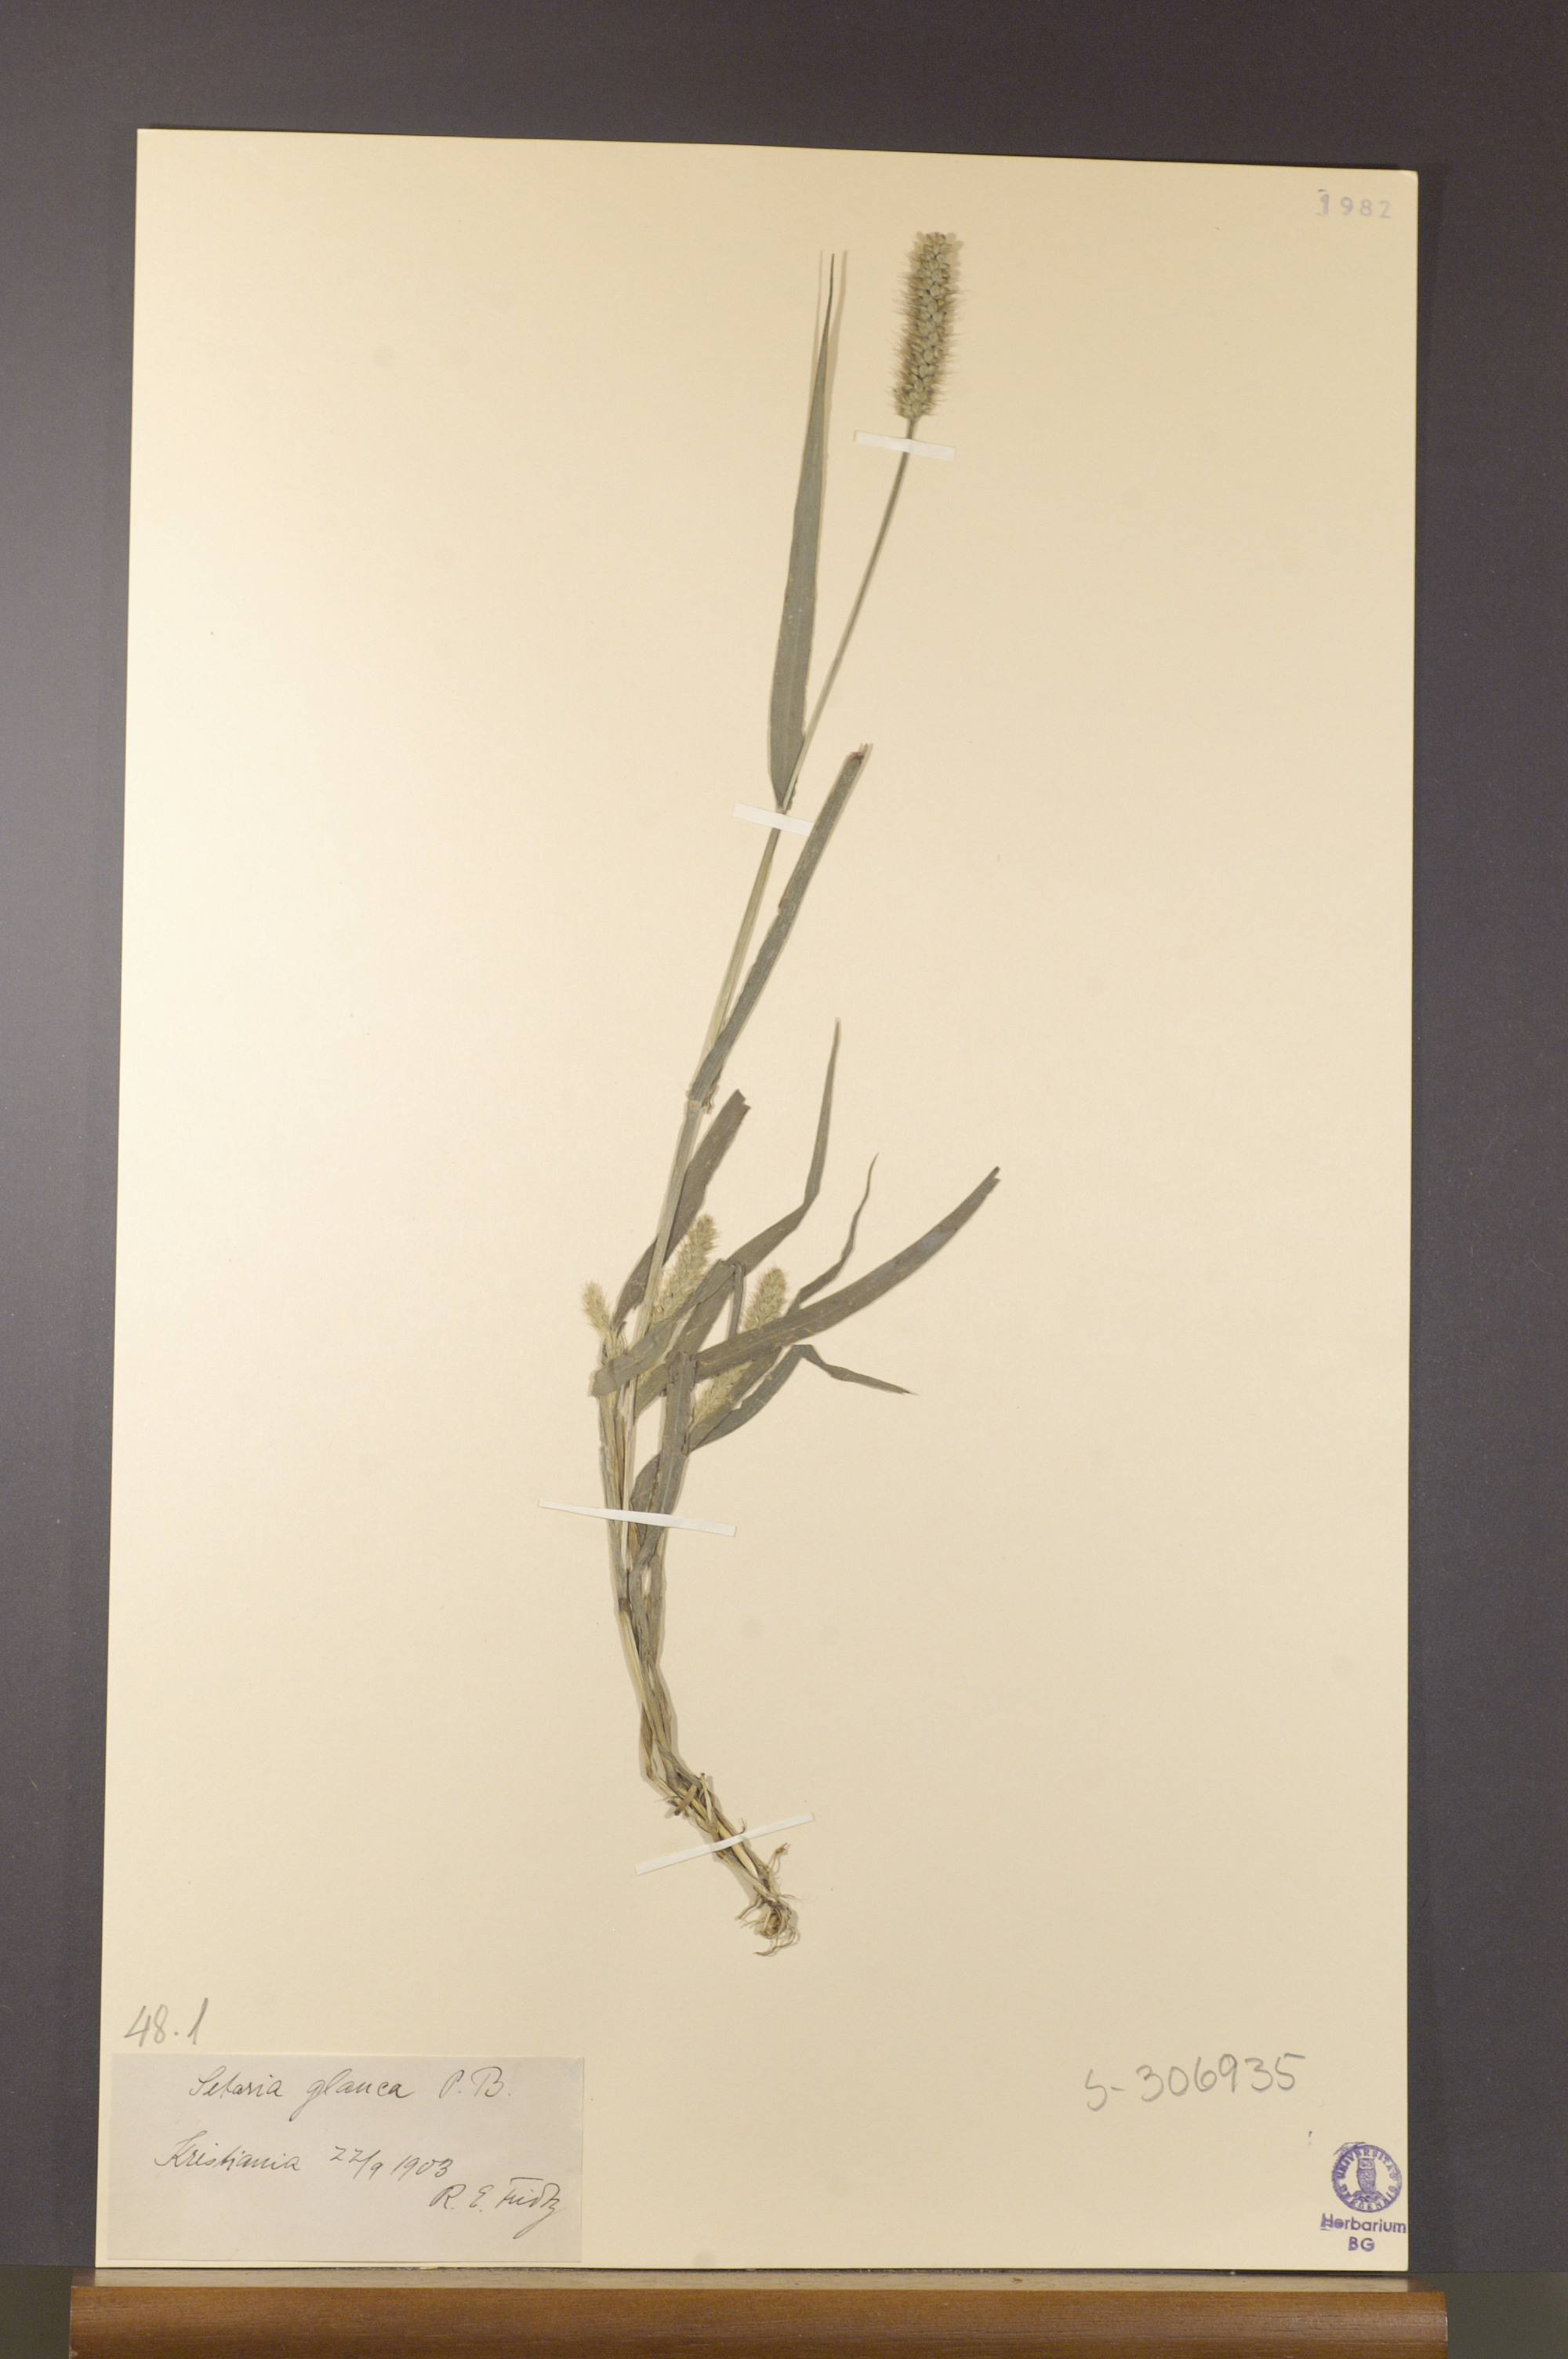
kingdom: Plantae
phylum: Tracheophyta
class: Liliopsida
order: Poales
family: Poaceae
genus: Setaria
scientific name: Setaria pumila
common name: Yellow bristle-grass
